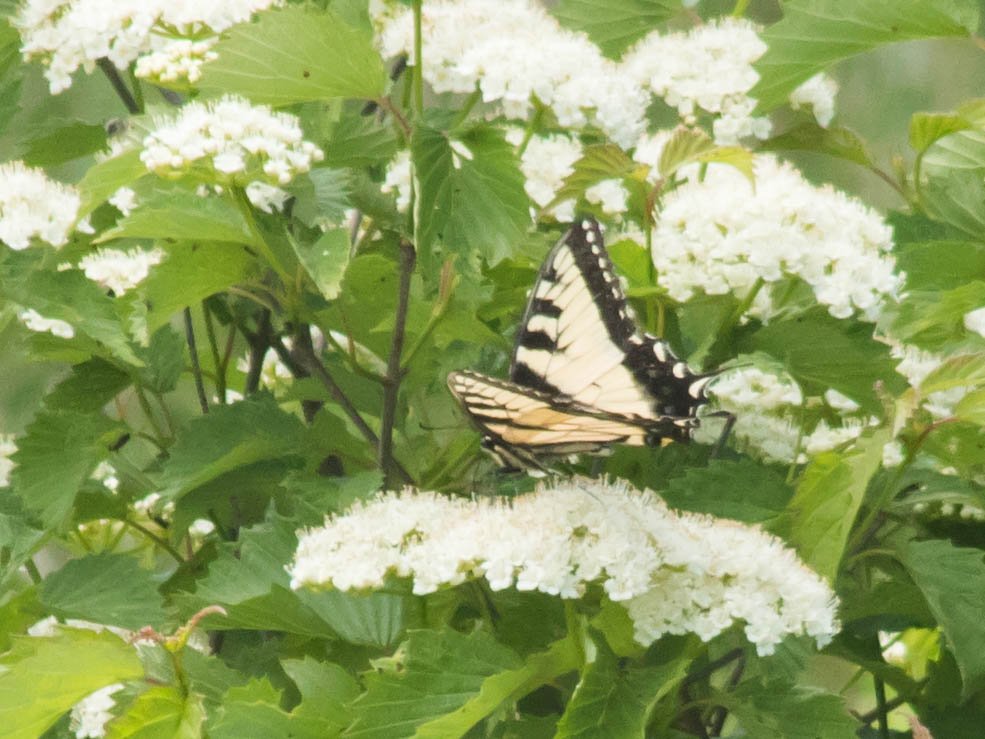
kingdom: Animalia
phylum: Arthropoda
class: Insecta
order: Lepidoptera
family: Papilionidae
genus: Pterourus
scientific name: Pterourus glaucus
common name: Eastern Tiger Swallowtail
